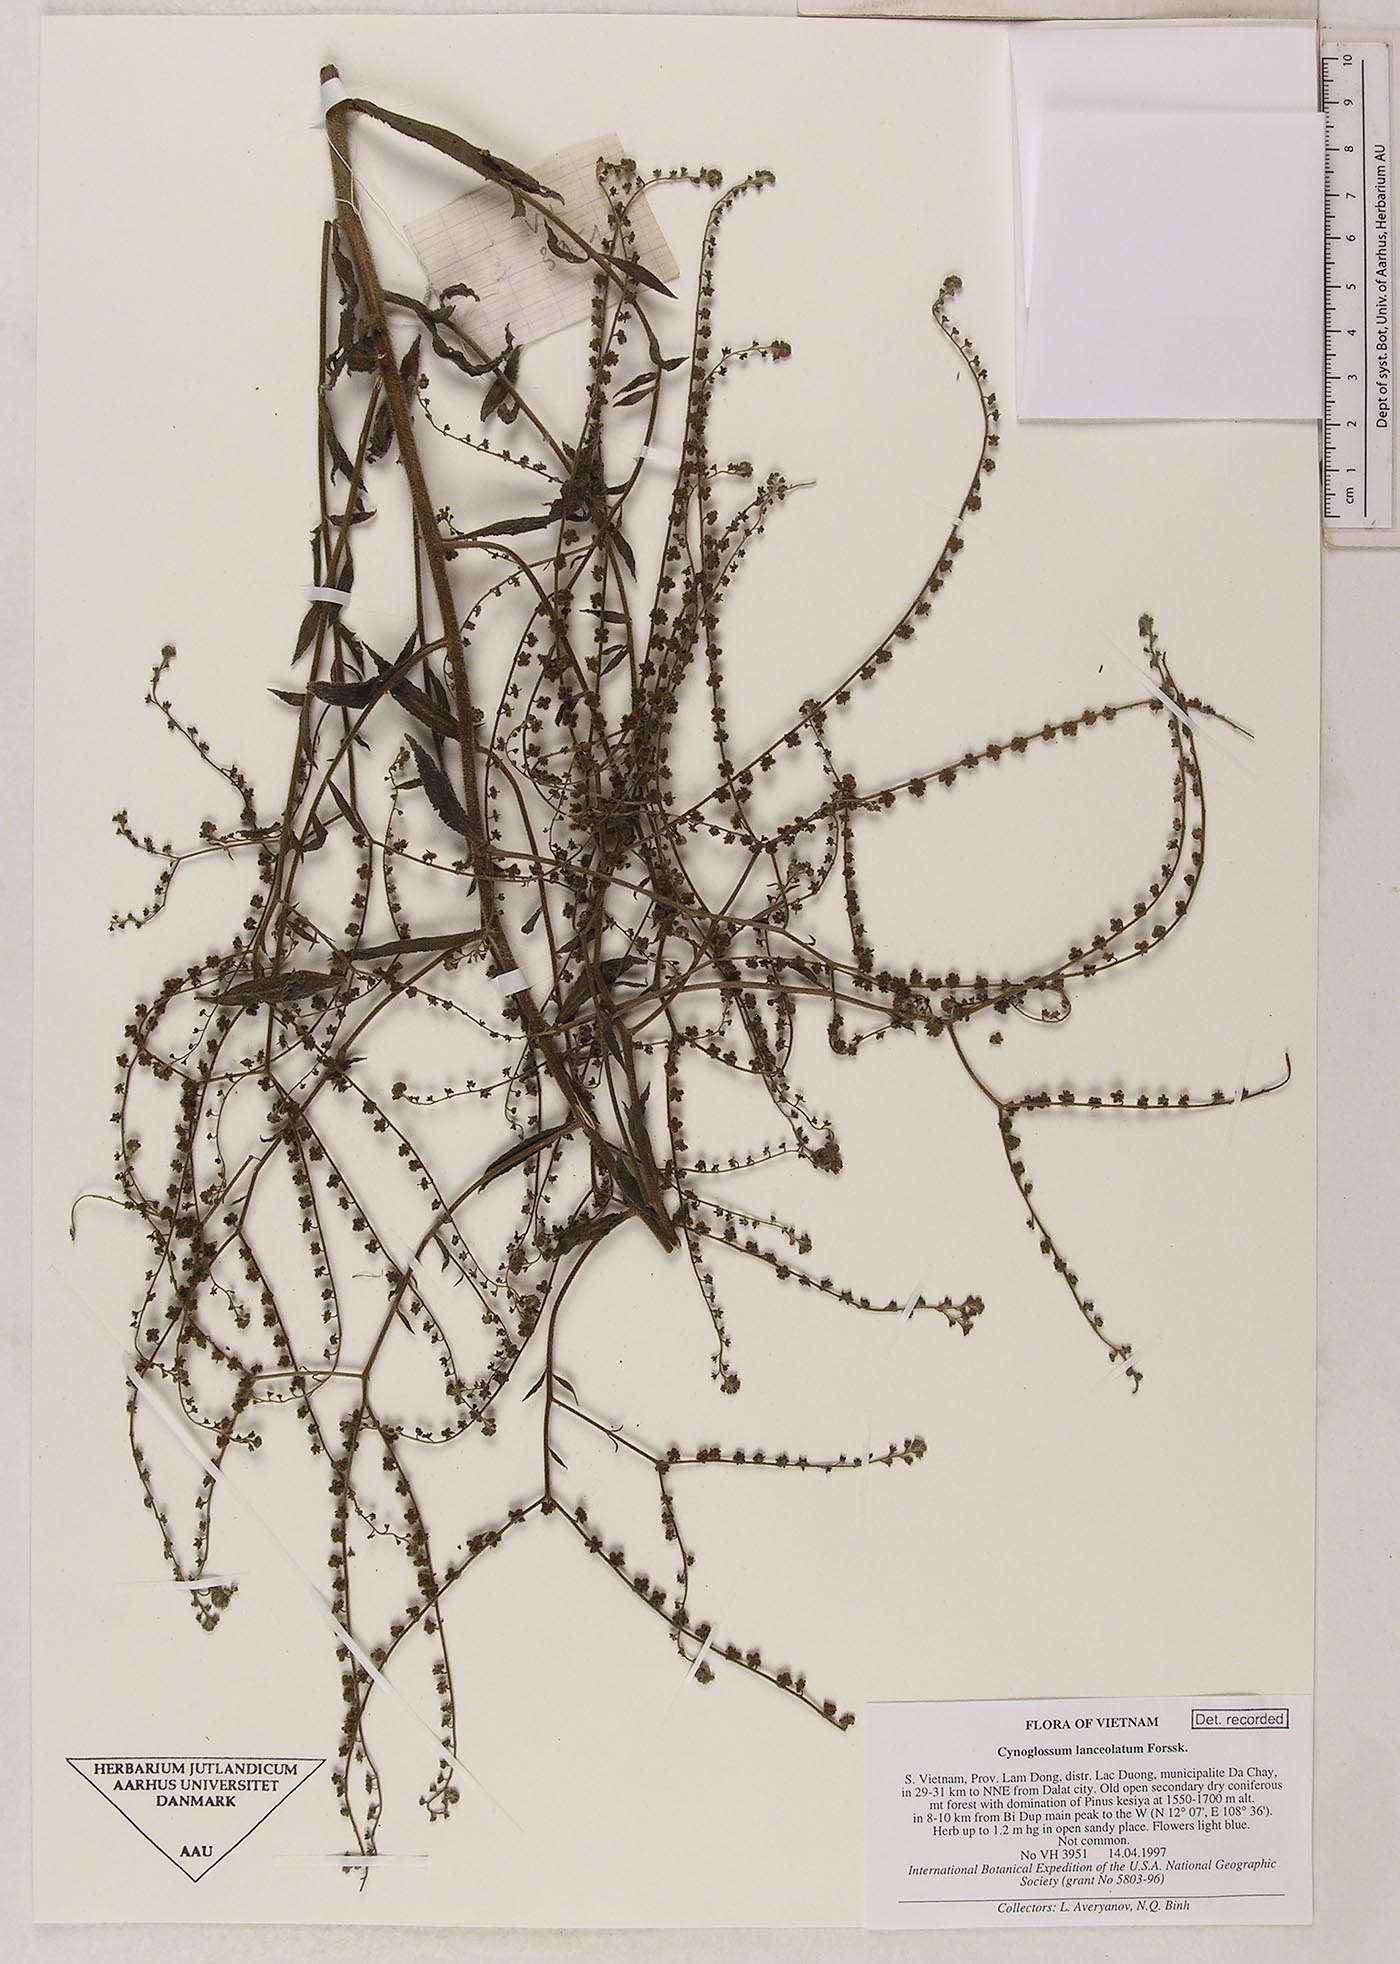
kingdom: Plantae
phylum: Tracheophyta
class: Magnoliopsida
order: Boraginales
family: Boraginaceae
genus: Paracynoglossum
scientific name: Paracynoglossum lanceolatum
